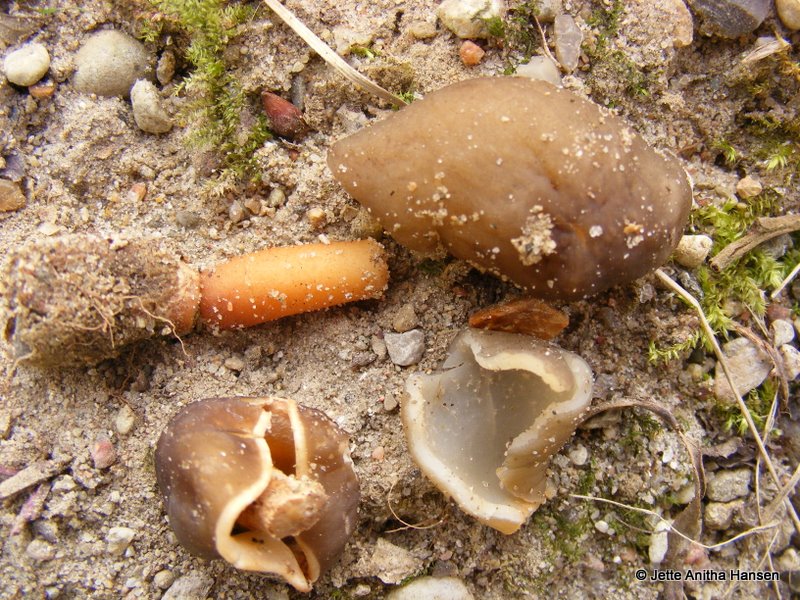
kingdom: Fungi
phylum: Ascomycota
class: Pezizomycetes
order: Pezizales
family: Morchellaceae
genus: Verpa
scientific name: Verpa conica
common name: glat klokkemorkel
